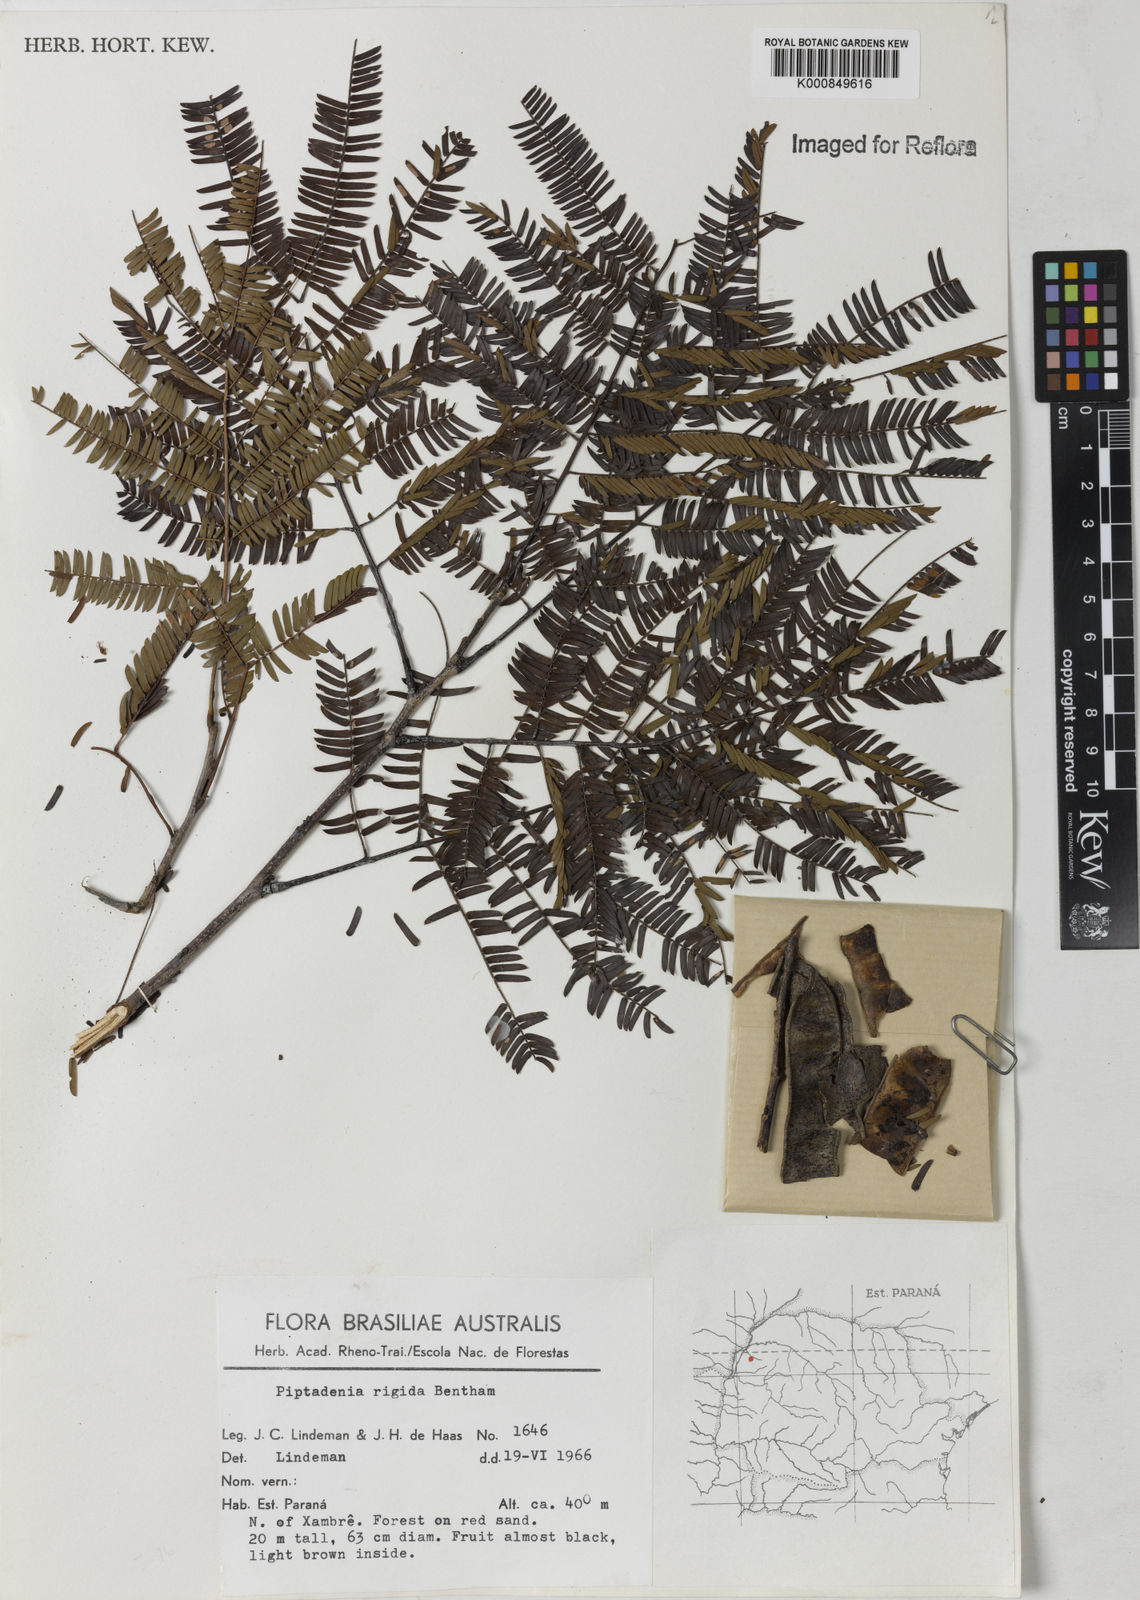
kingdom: Plantae
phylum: Tracheophyta
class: Magnoliopsida
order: Fabales
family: Fabaceae
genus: Parapiptadenia
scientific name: Parapiptadenia rigida
